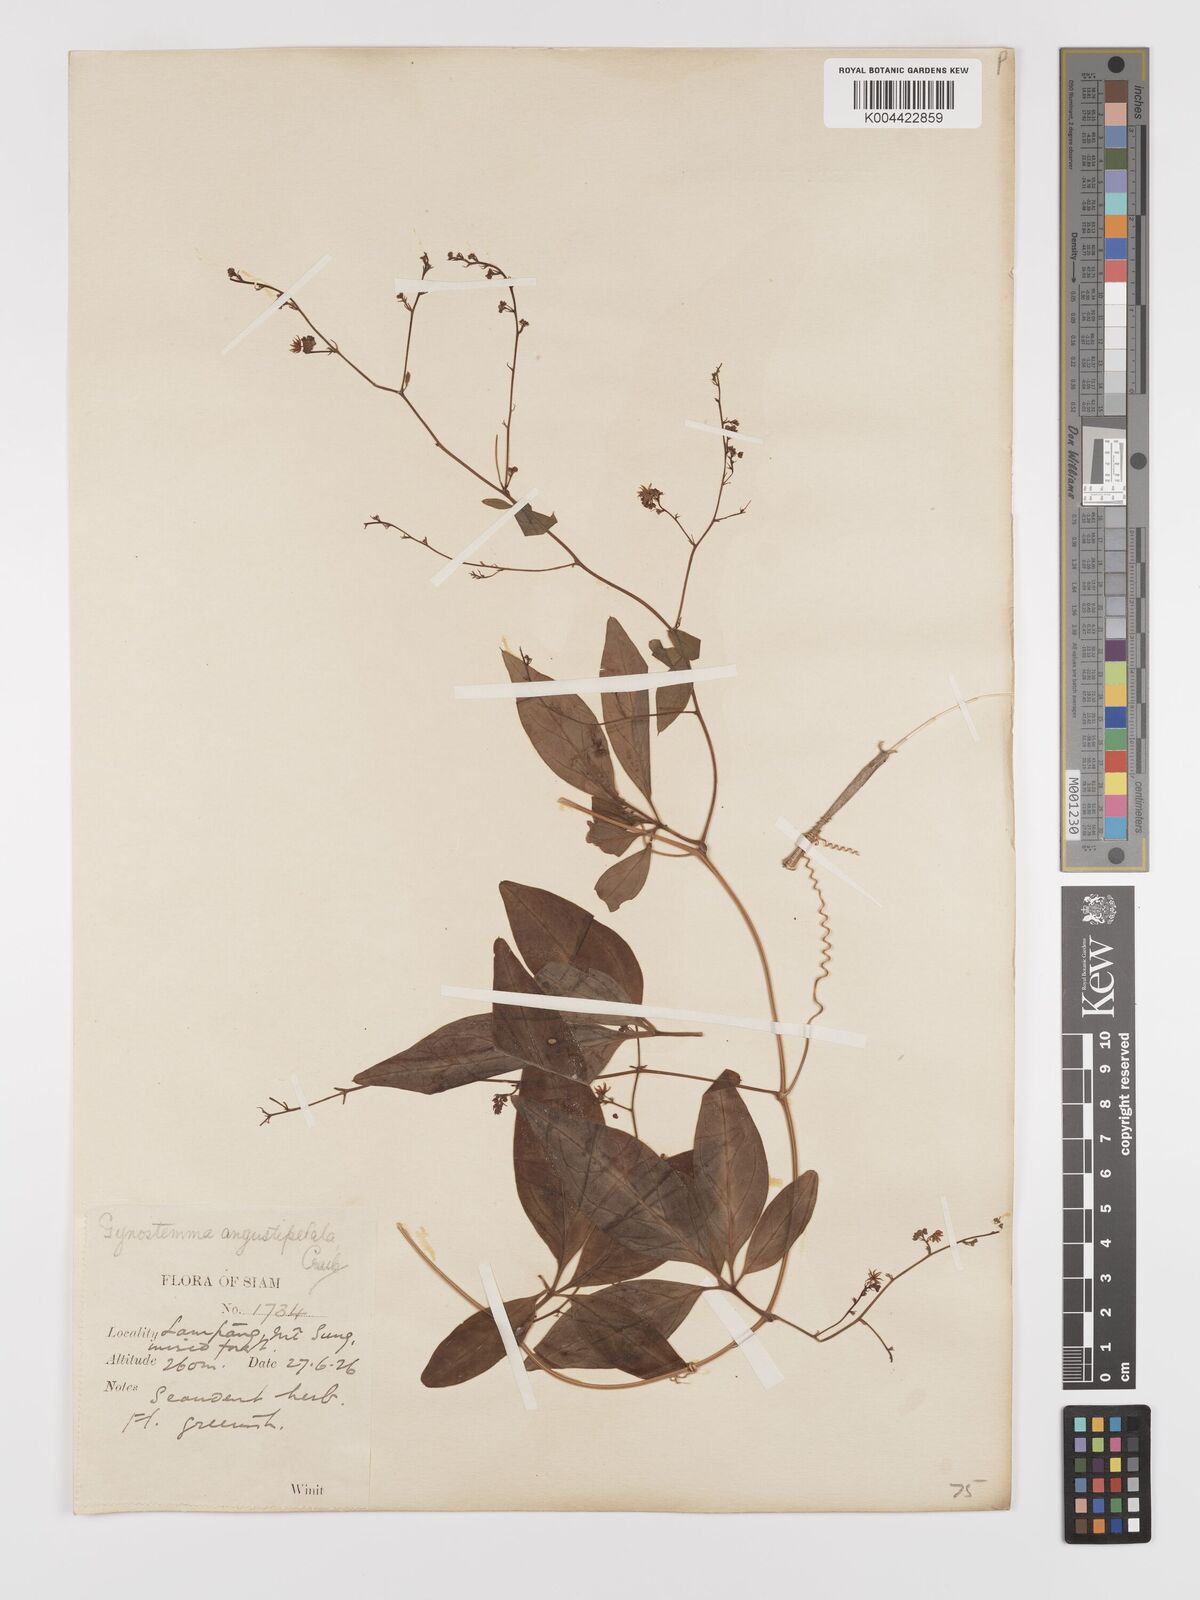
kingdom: Plantae
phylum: Tracheophyta
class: Magnoliopsida
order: Cucurbitales
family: Cucurbitaceae
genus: Neoalsomitra
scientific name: Neoalsomitra angustipetala
